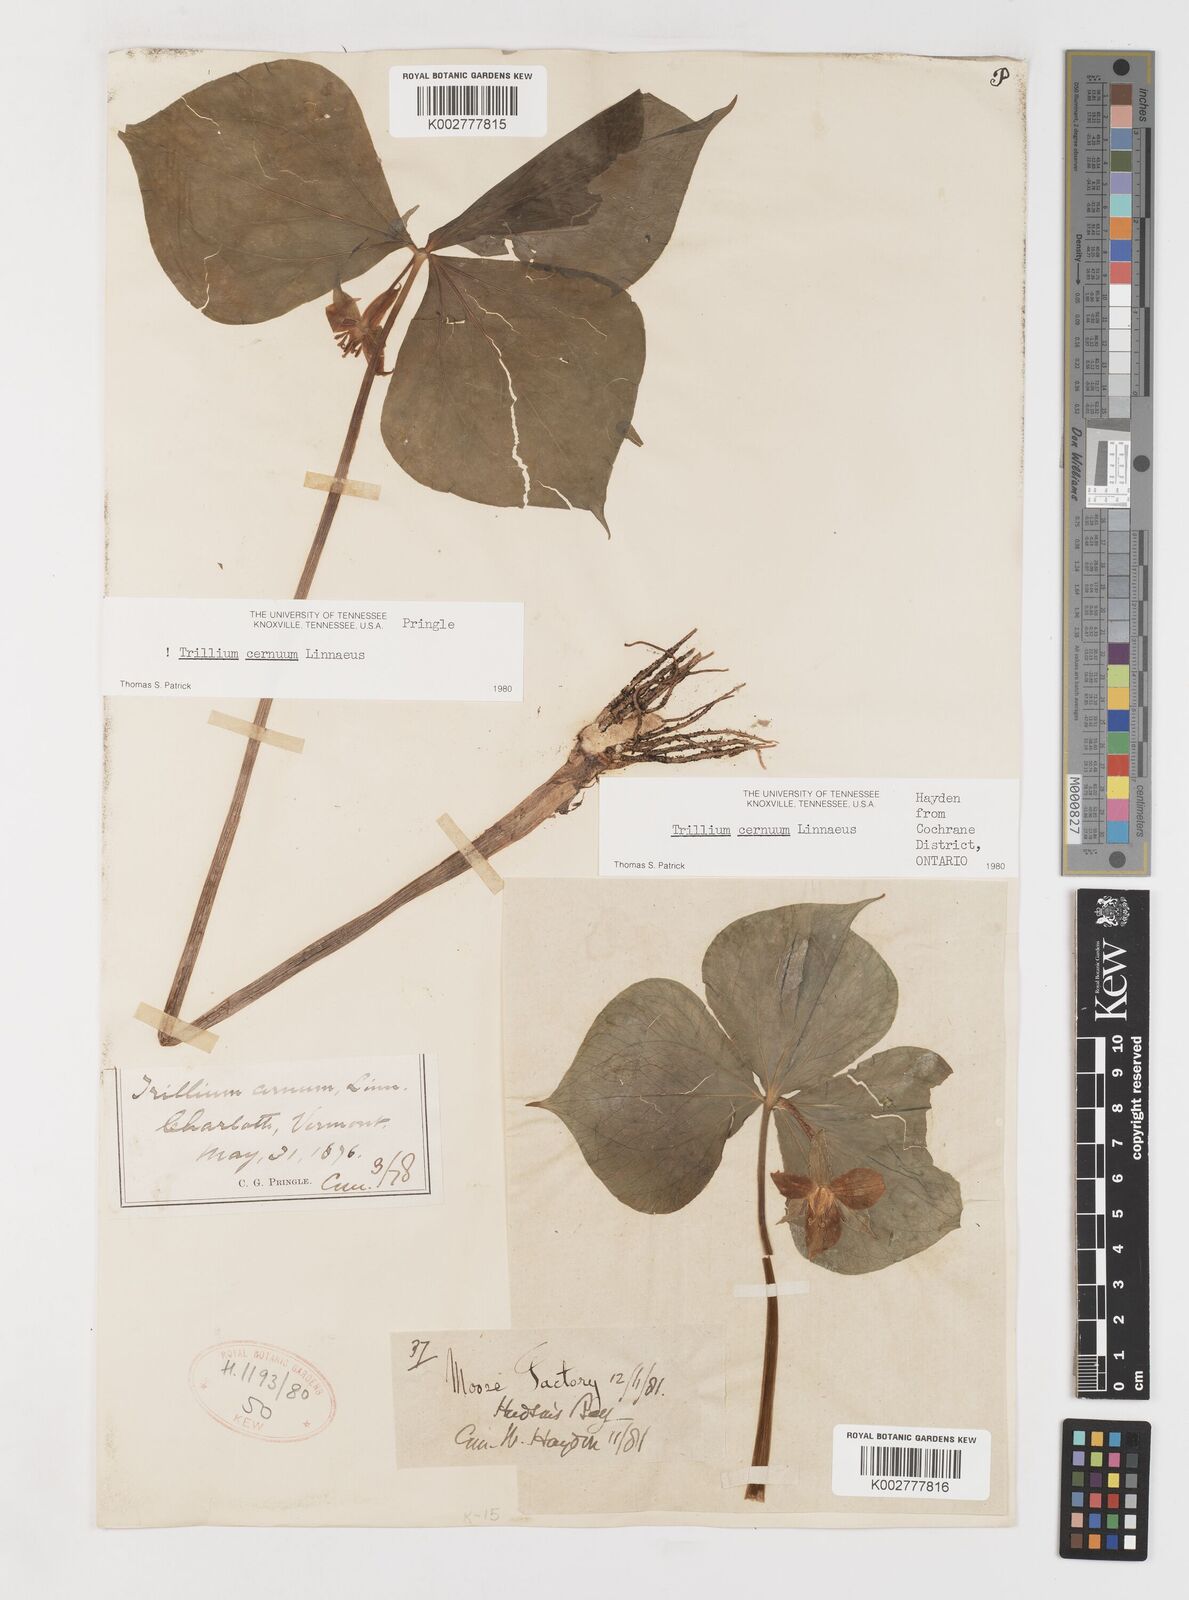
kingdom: Plantae
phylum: Tracheophyta
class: Liliopsida
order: Liliales
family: Melanthiaceae
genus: Trillium
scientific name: Trillium cernuum
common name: Nodding trillium
